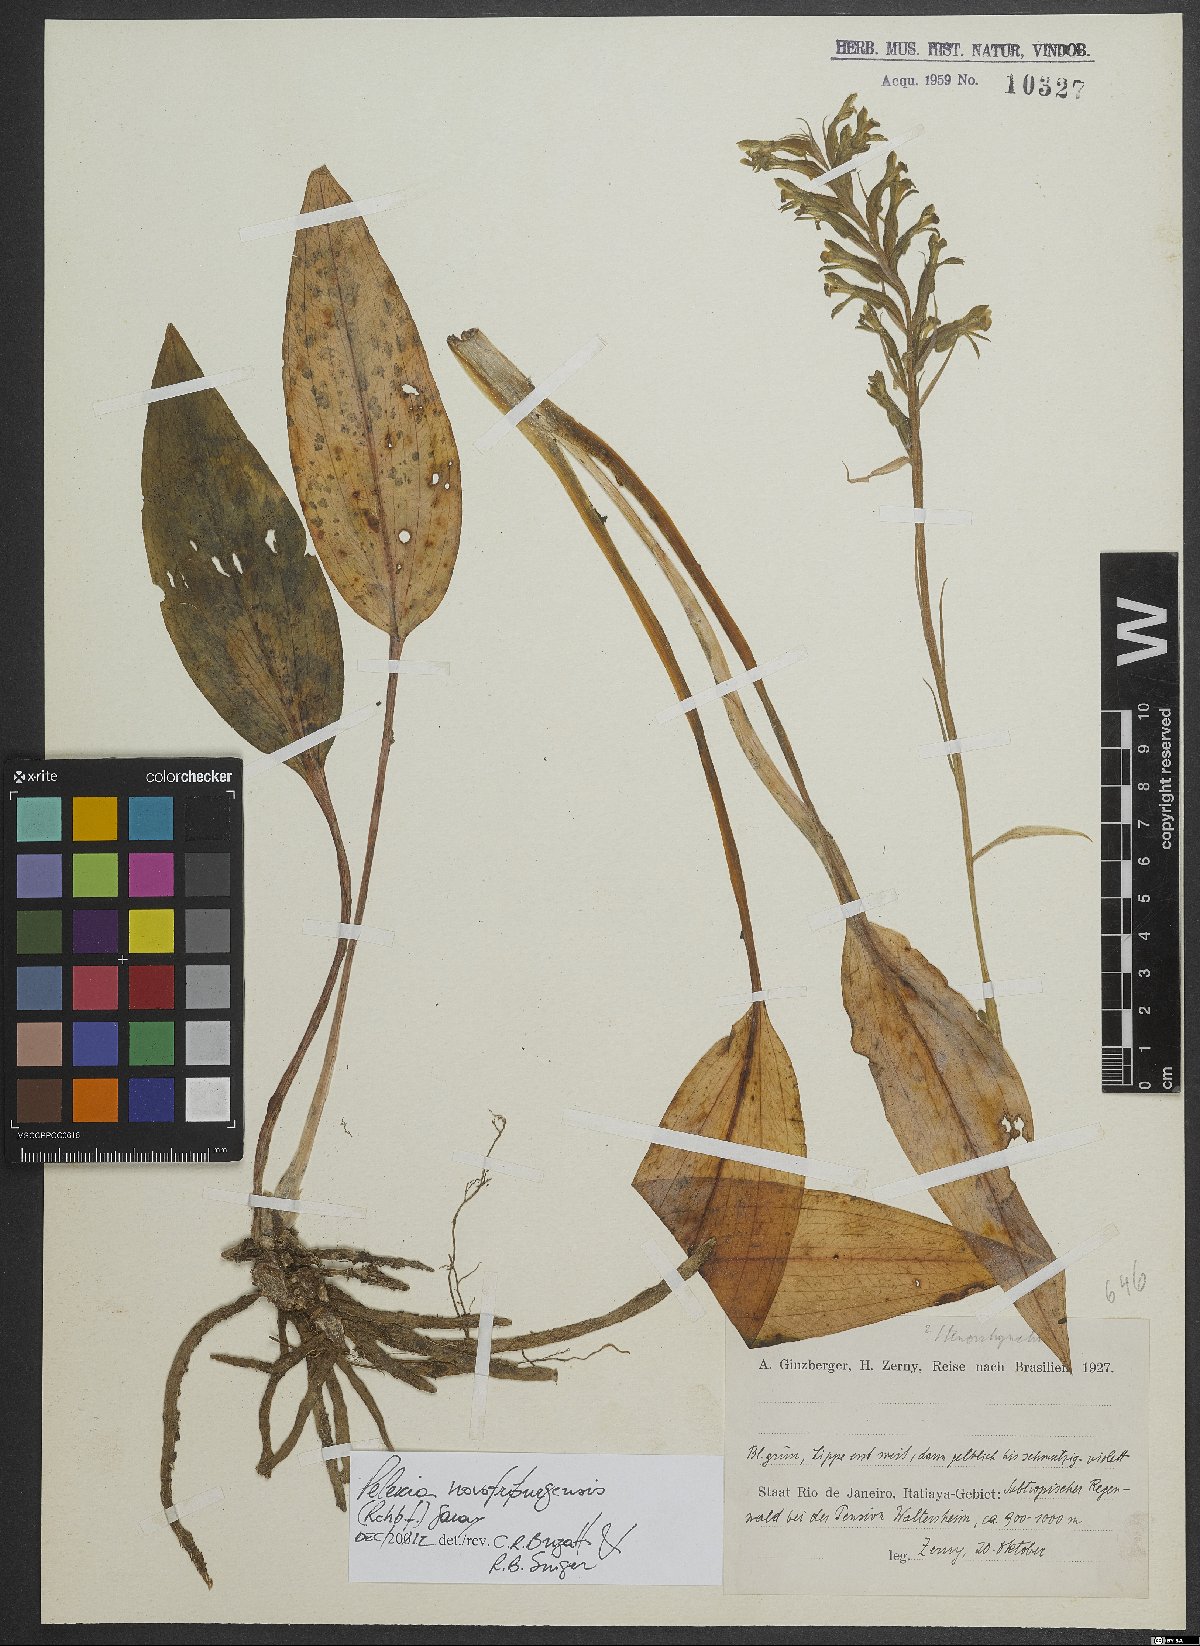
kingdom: Plantae
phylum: Tracheophyta
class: Liliopsida
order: Asparagales
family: Orchidaceae
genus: Pelexia
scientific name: Pelexia novofriburgensis
